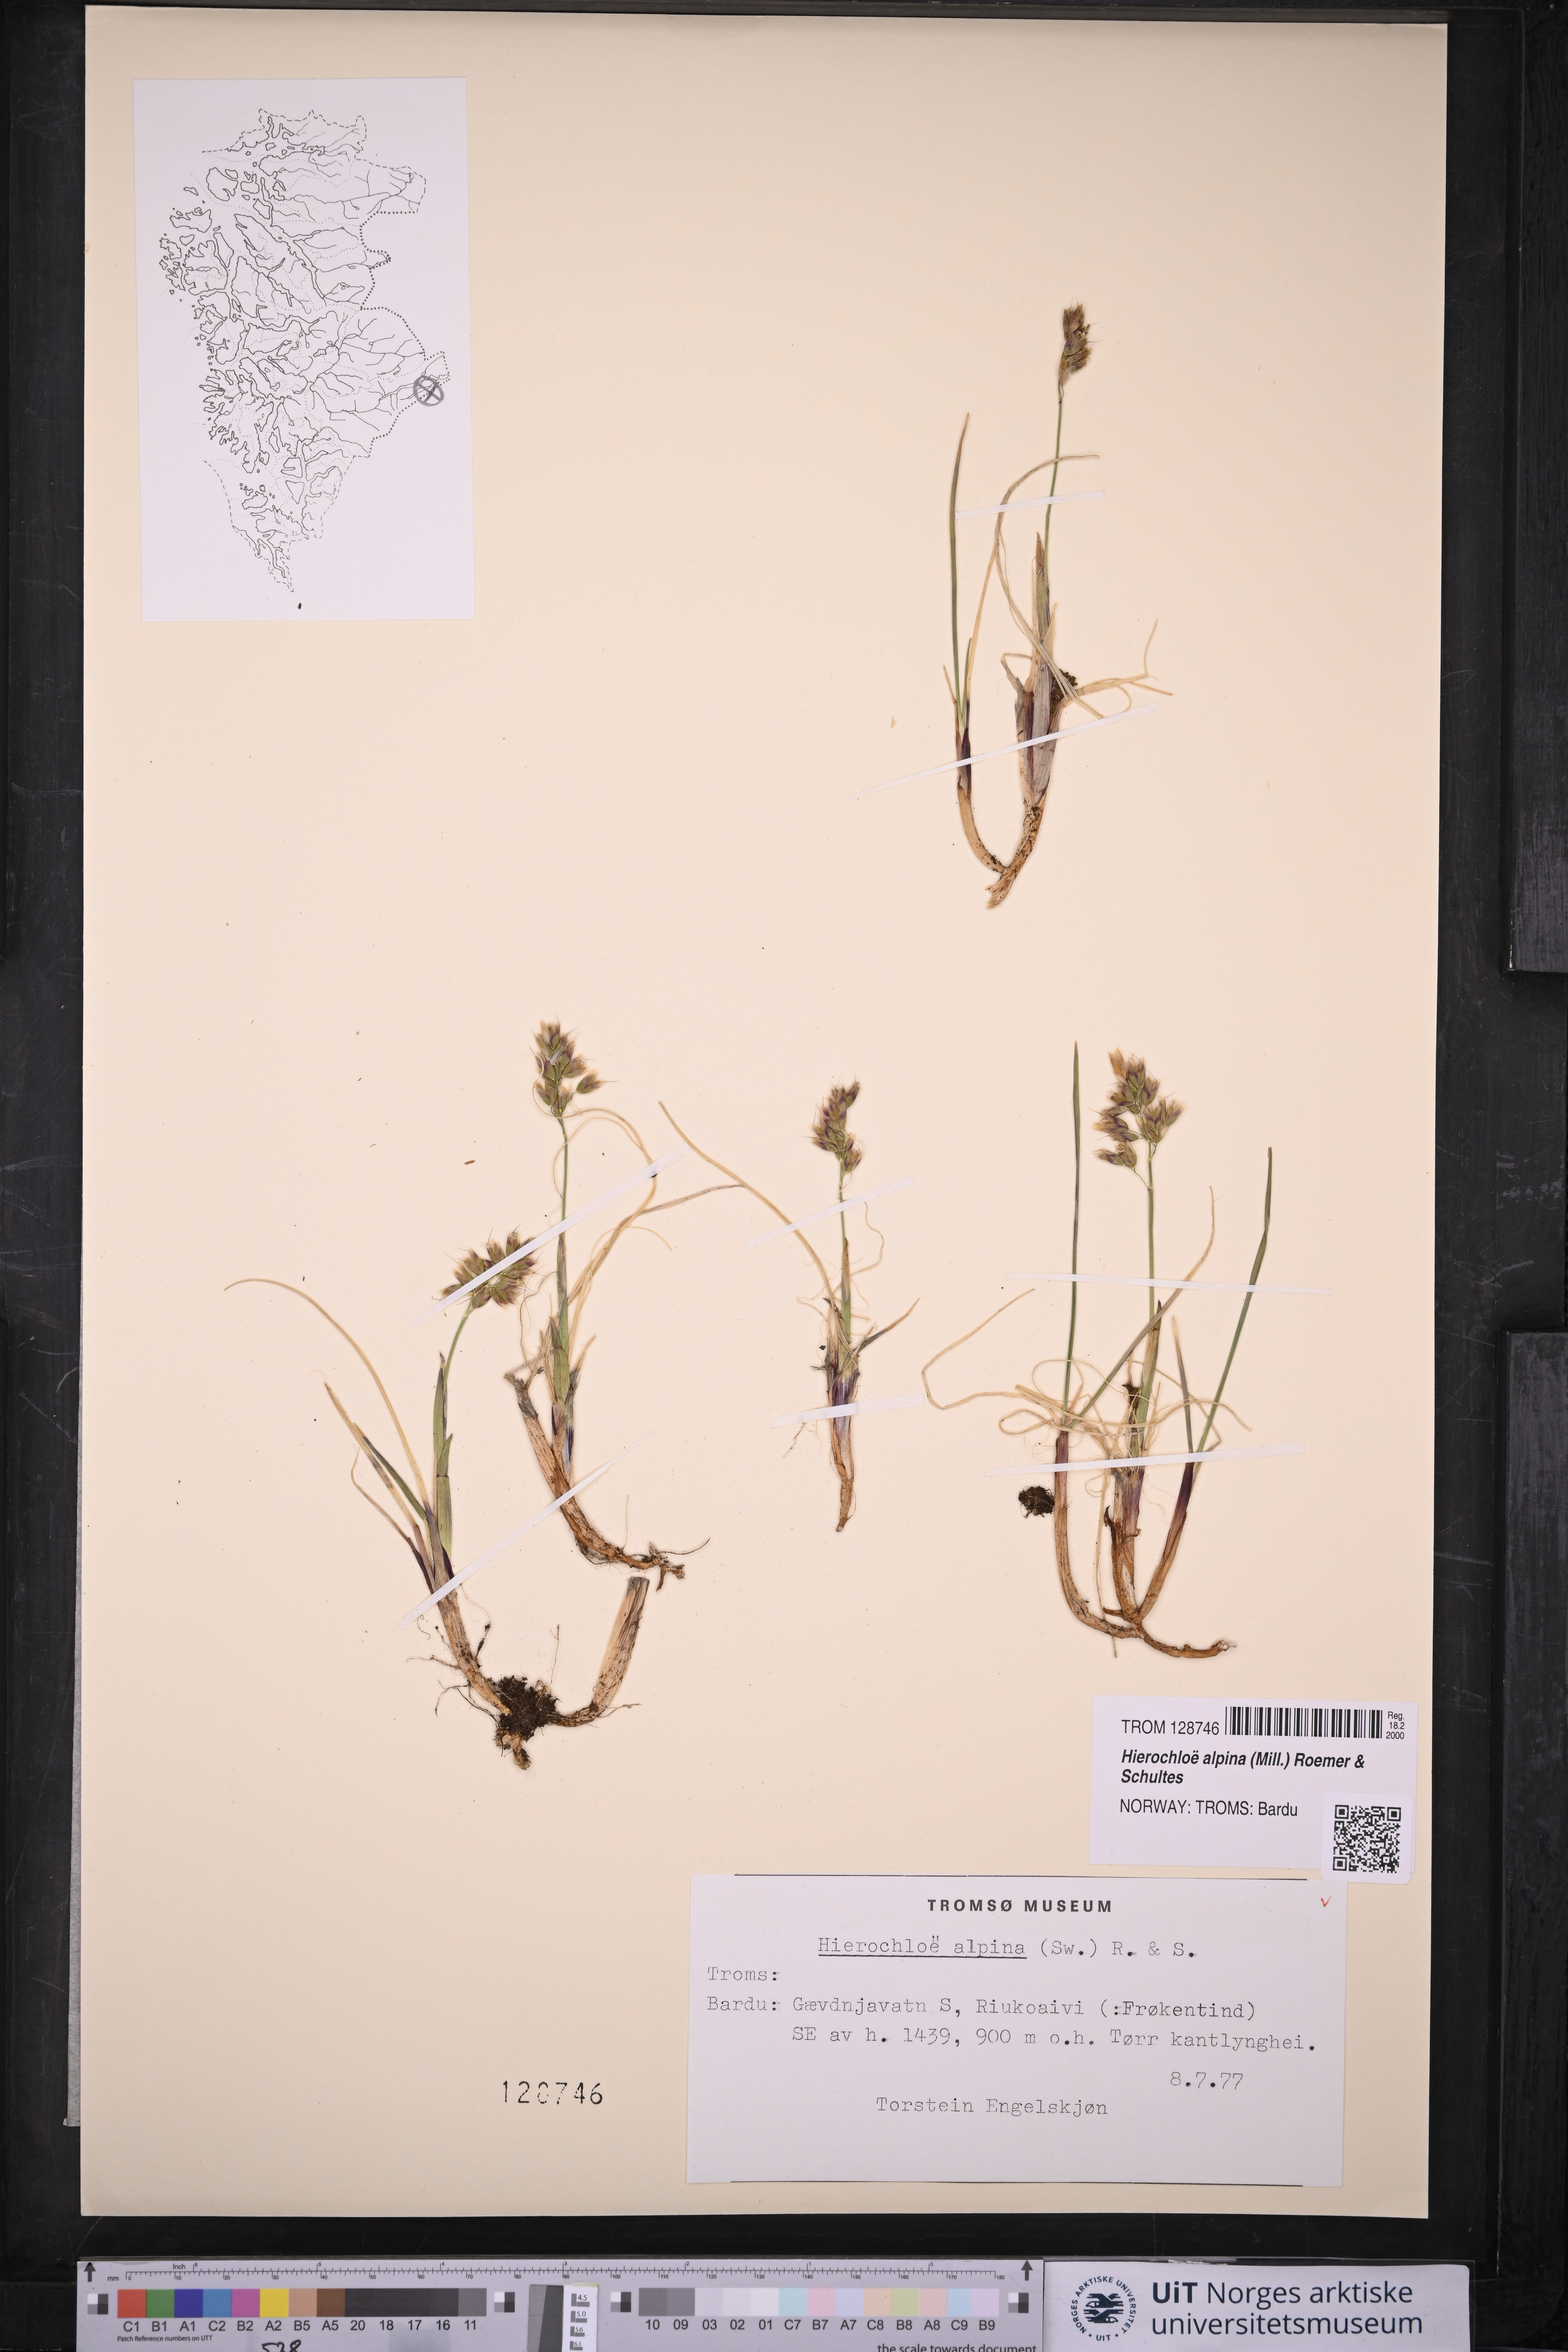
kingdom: Plantae
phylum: Tracheophyta
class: Liliopsida
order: Poales
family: Poaceae
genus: Anthoxanthum
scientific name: Anthoxanthum monticola
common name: Alpine sweetgrass
